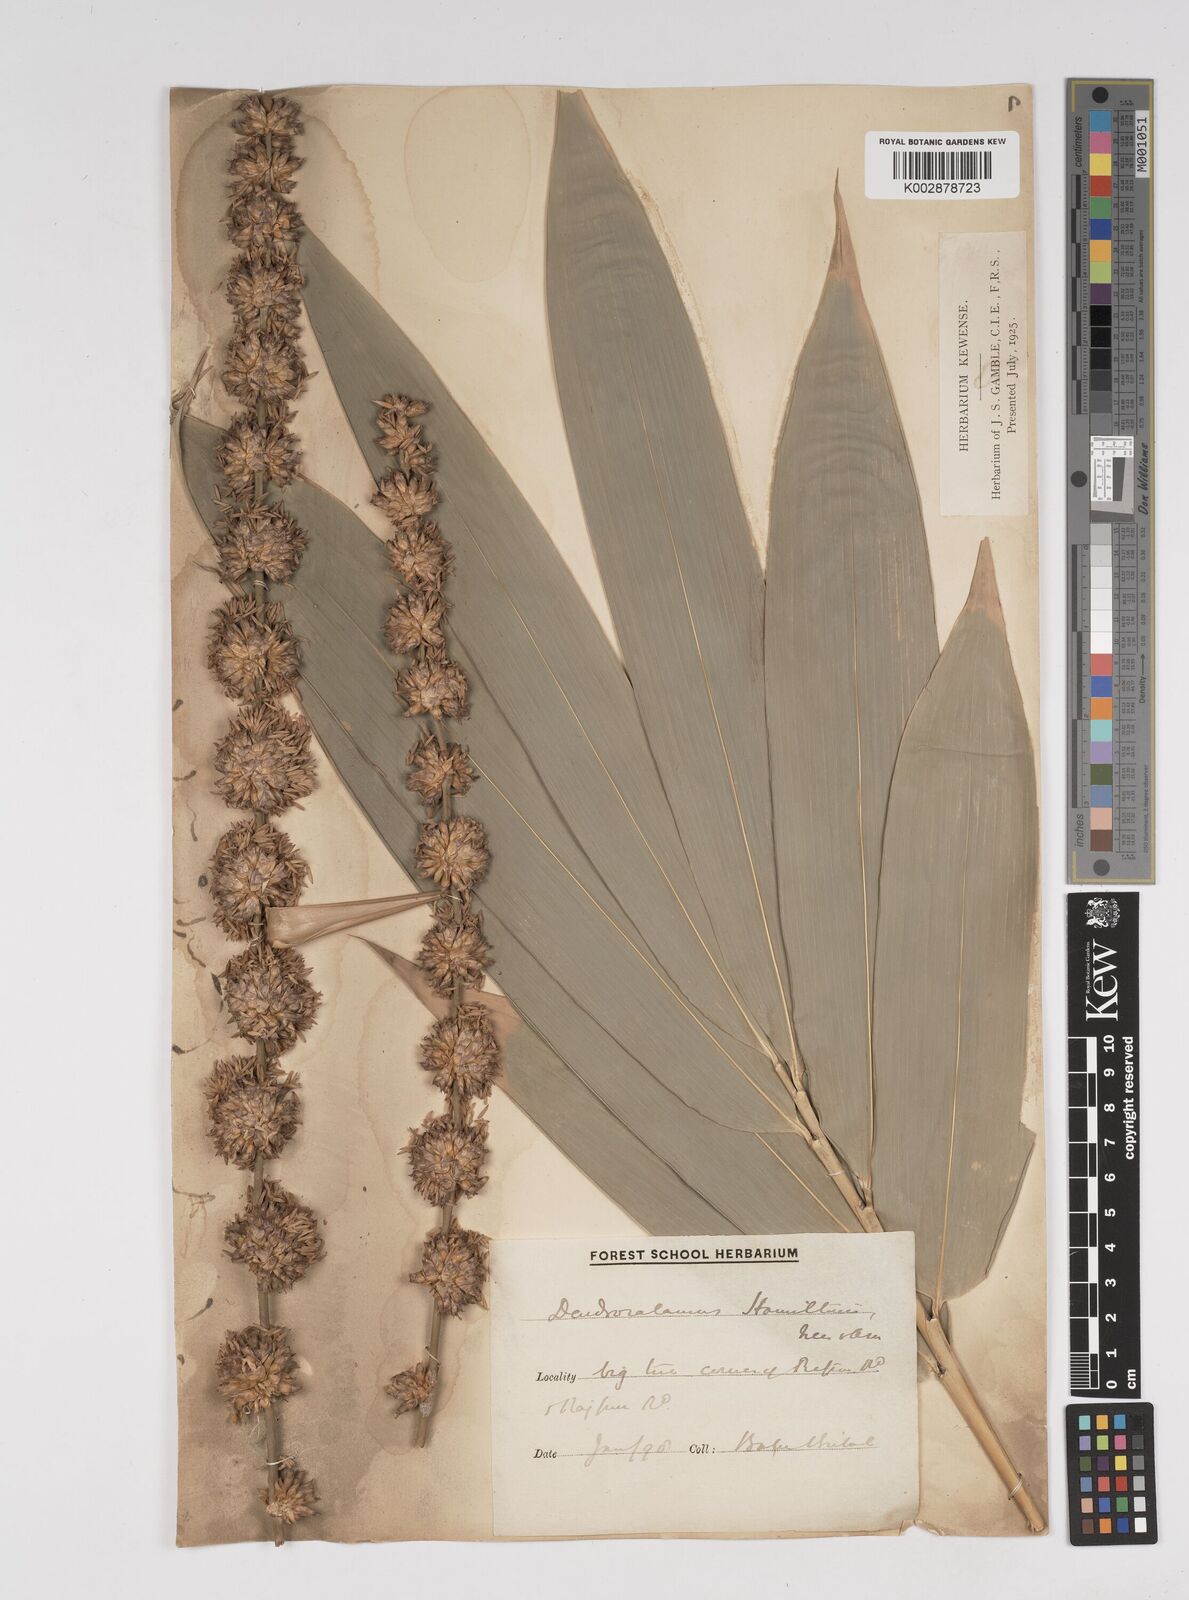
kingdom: Plantae
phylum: Tracheophyta
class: Liliopsida
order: Poales
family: Poaceae
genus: Dendrocalamus
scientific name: Dendrocalamus hamiltonii
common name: Tama bamboo
